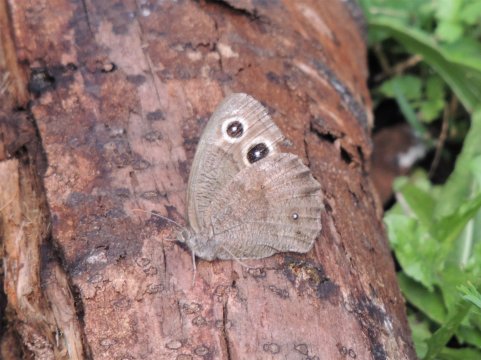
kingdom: Animalia
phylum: Arthropoda
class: Insecta
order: Lepidoptera
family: Nymphalidae
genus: Cercyonis
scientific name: Cercyonis pegala
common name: Common Wood-Nymph
